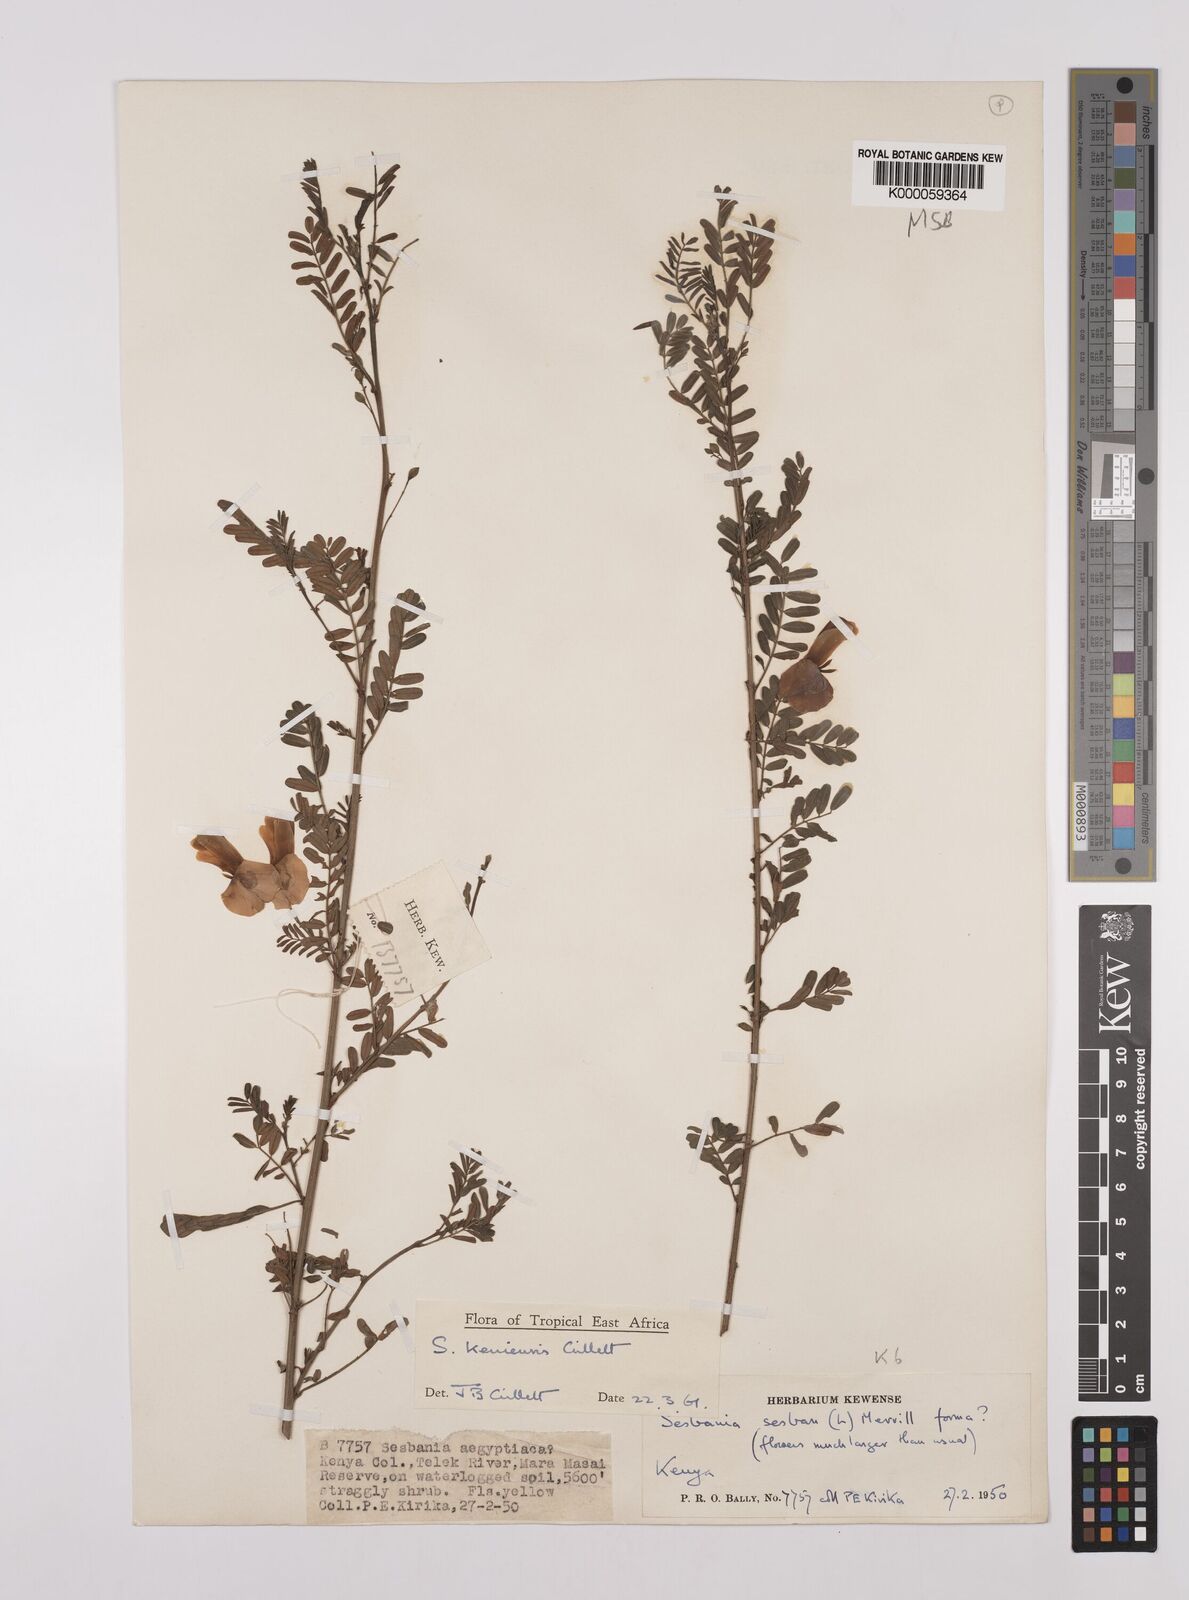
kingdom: Plantae
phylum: Tracheophyta
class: Magnoliopsida
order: Fabales
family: Fabaceae
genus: Sesbania
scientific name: Sesbania keniensis
